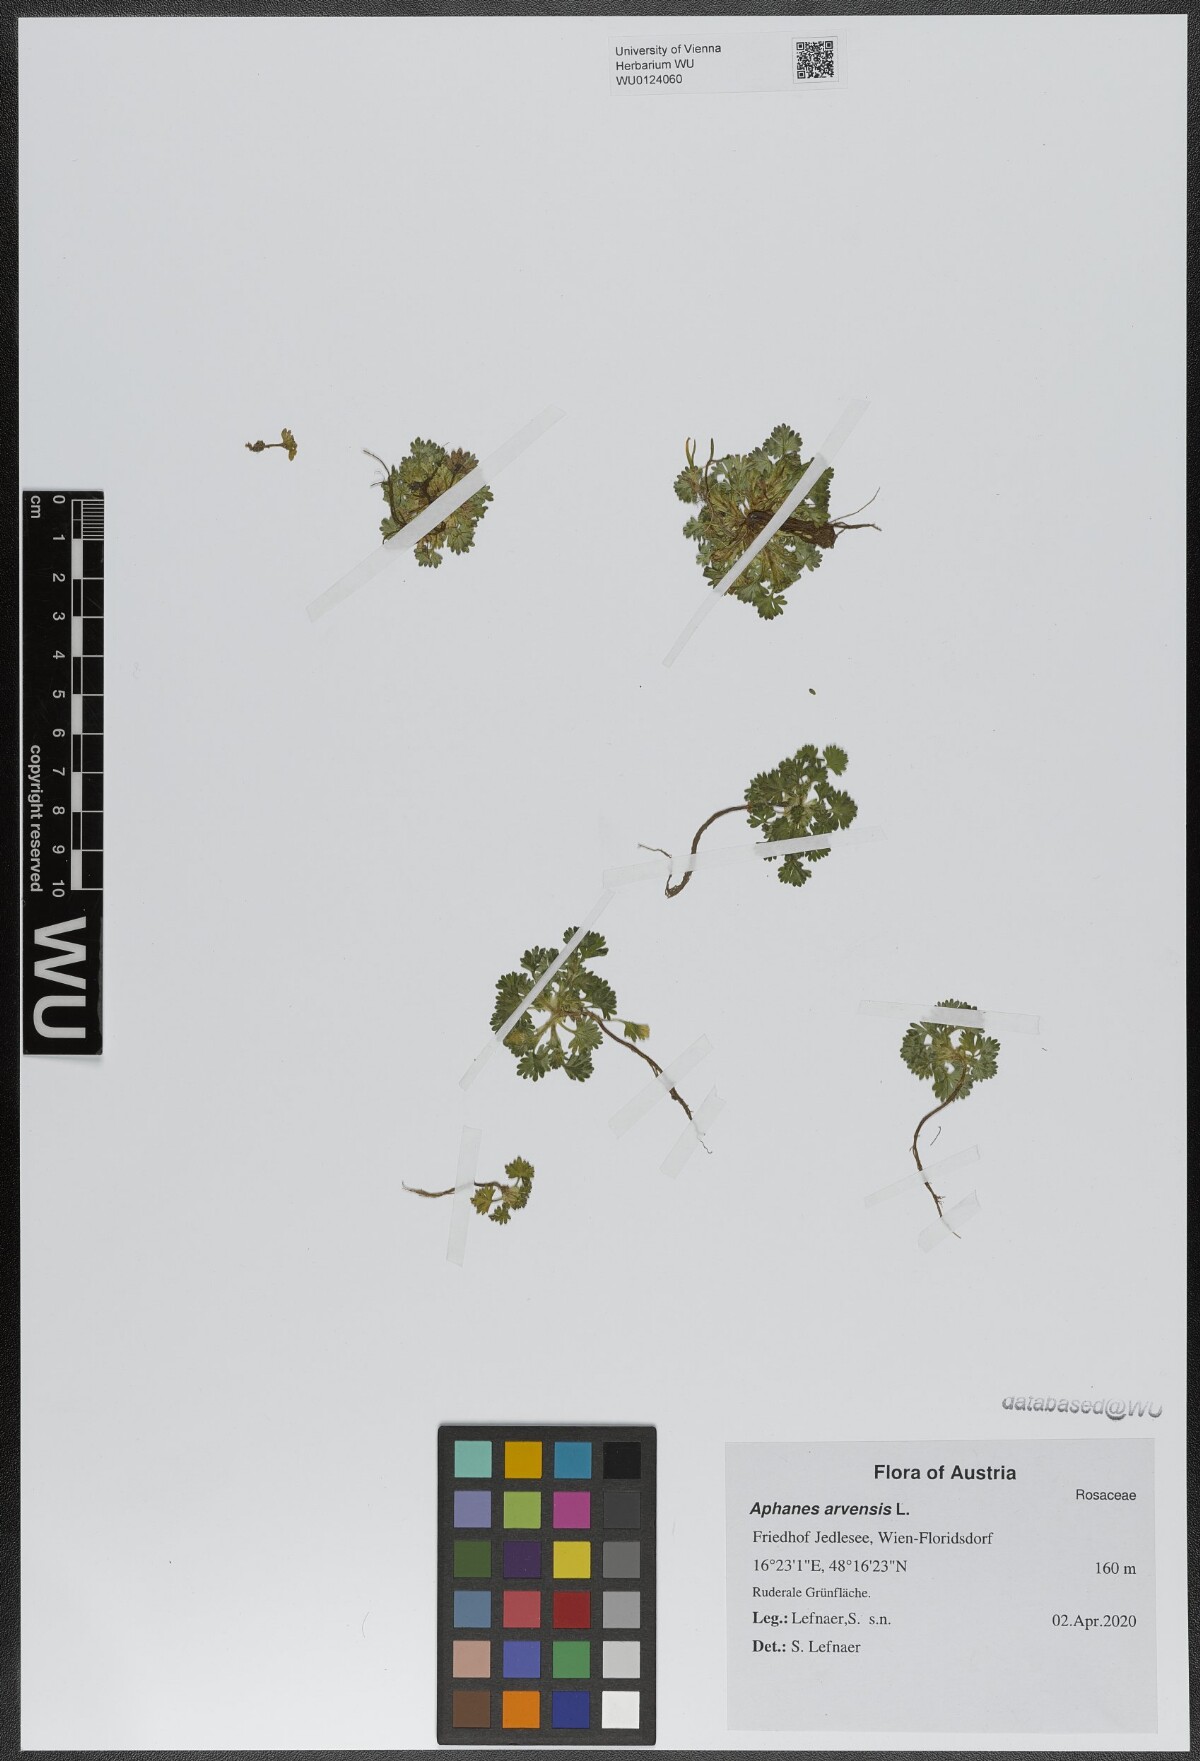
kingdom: Plantae
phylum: Tracheophyta
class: Magnoliopsida
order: Rosales
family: Rosaceae
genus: Aphanes
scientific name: Aphanes arvensis
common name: Parsley-piert
